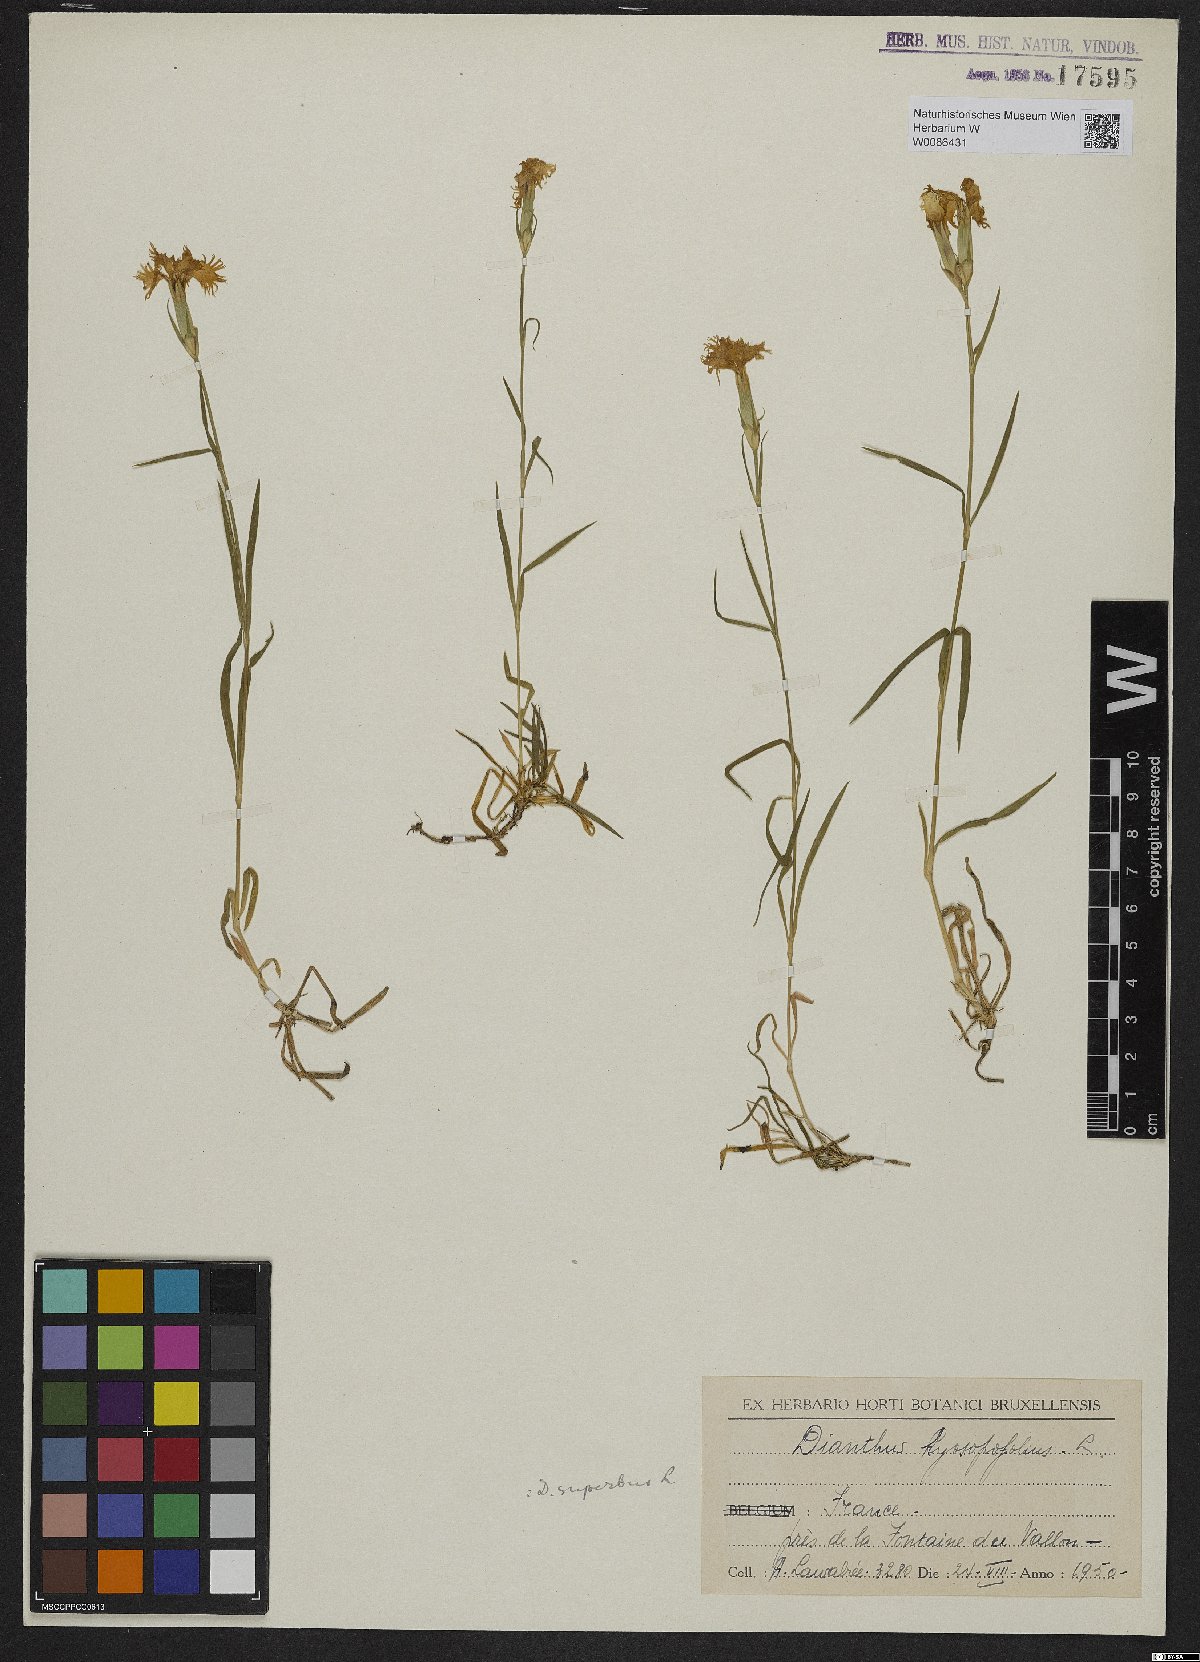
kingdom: Plantae
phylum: Tracheophyta
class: Magnoliopsida
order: Caryophyllales
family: Caryophyllaceae
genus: Dianthus
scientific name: Dianthus superbus
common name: Fringed pink
